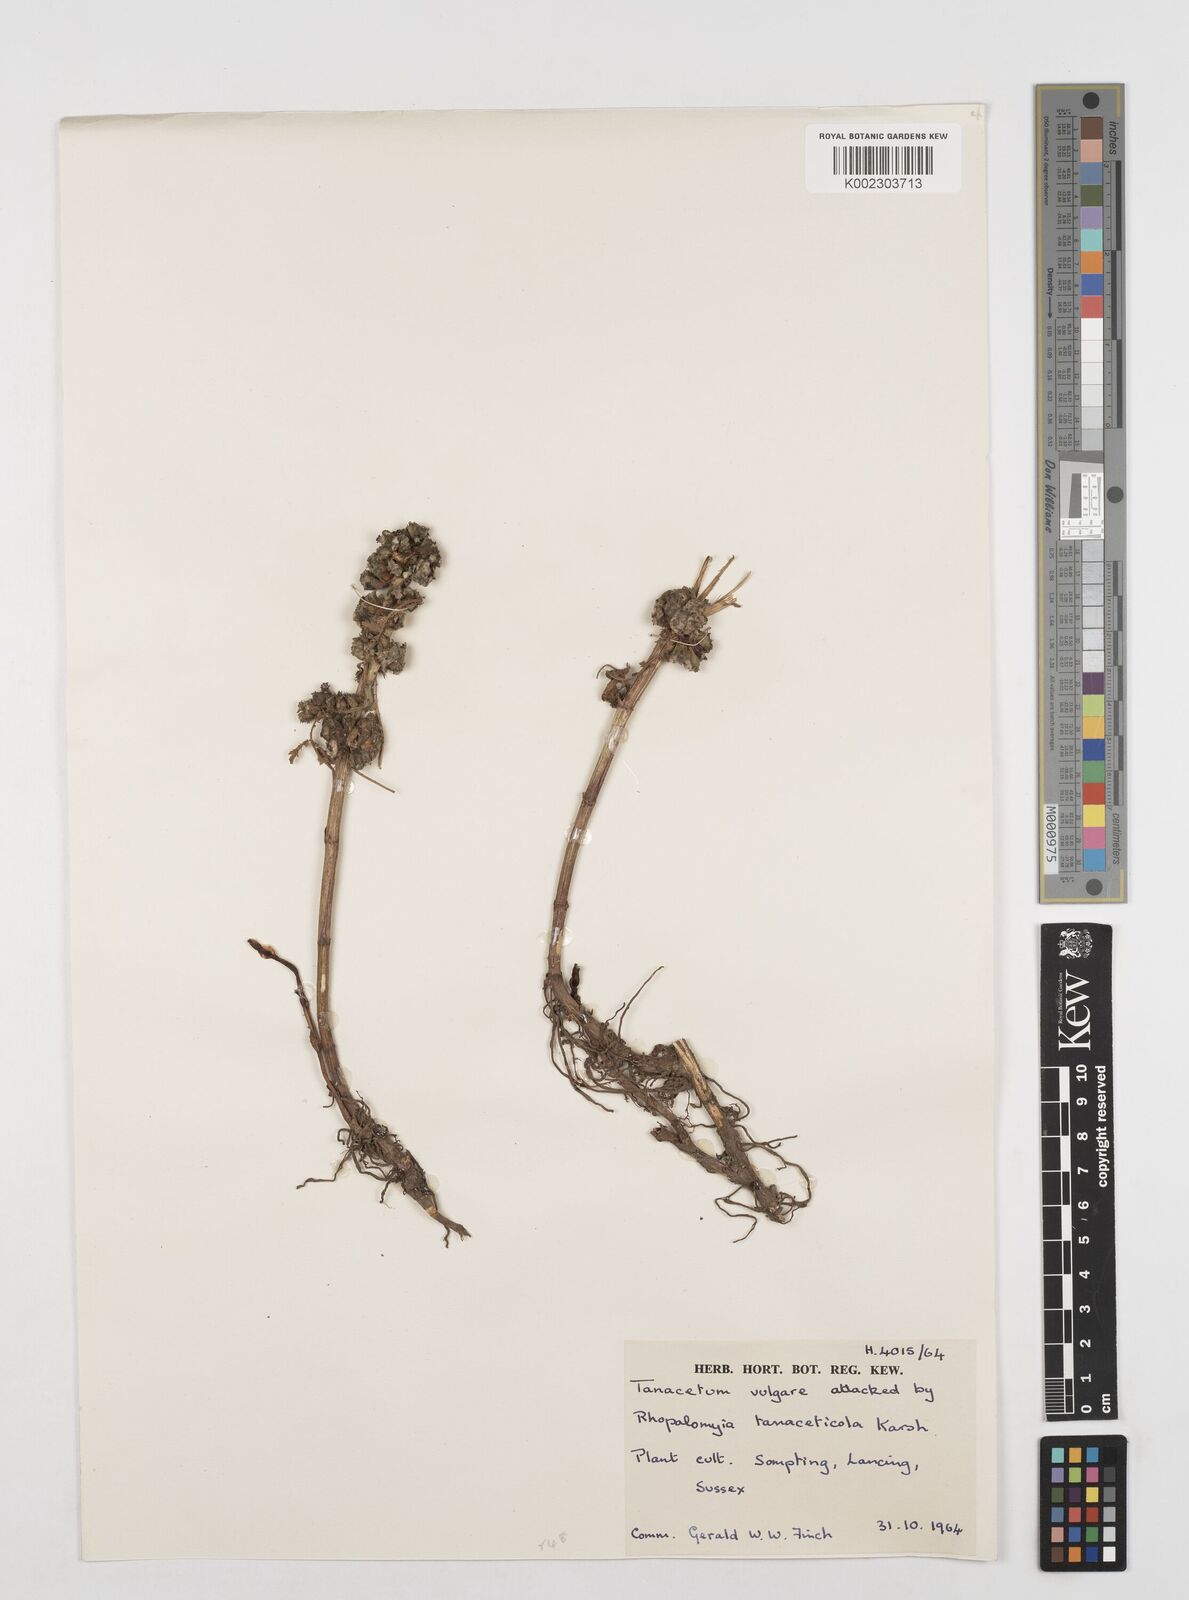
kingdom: Plantae
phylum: Tracheophyta
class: Magnoliopsida
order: Asterales
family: Asteraceae
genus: Tanacetum
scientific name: Tanacetum vulgare
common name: Common tansy
